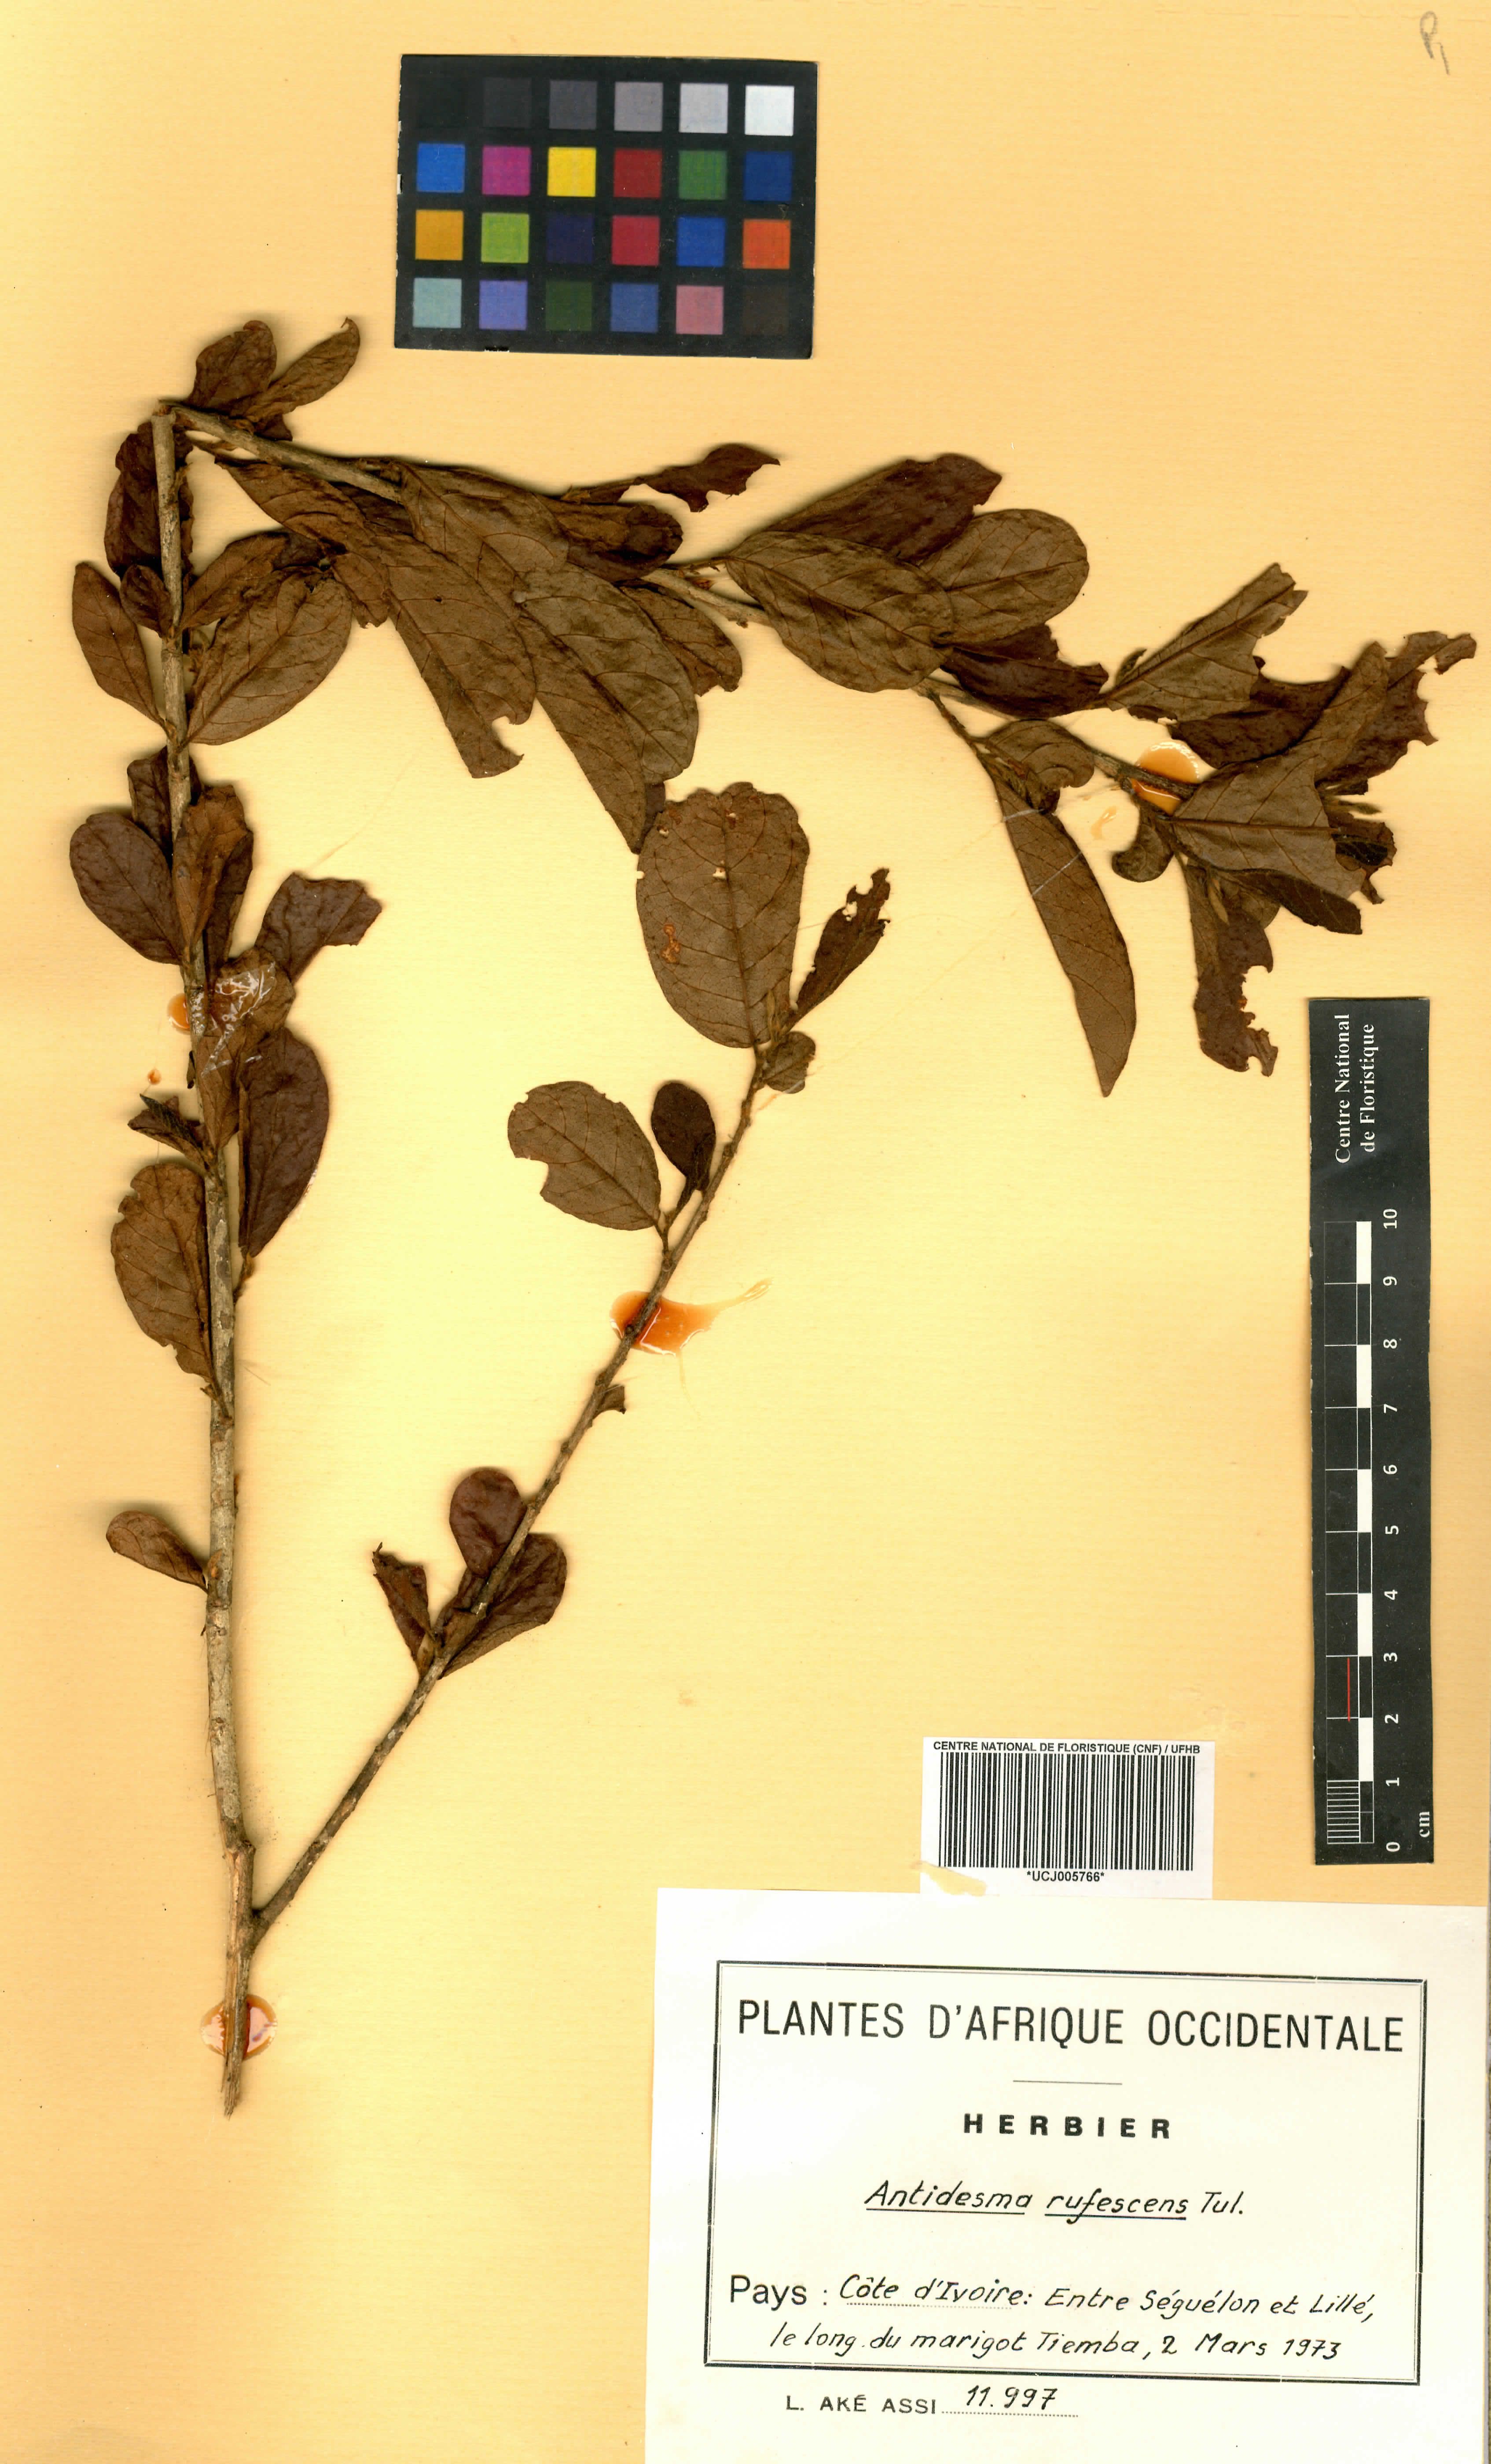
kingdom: Plantae
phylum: Tracheophyta
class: Magnoliopsida
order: Malpighiales
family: Phyllanthaceae
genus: Antidesma
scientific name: Antidesma rufescens
